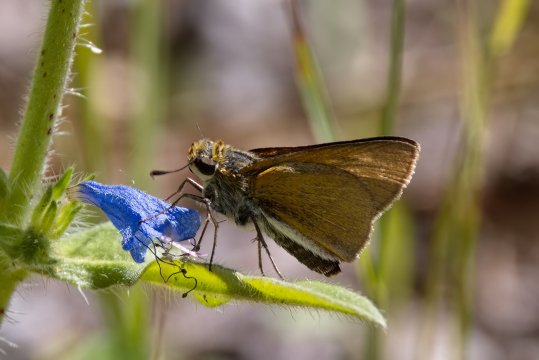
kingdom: Animalia
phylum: Arthropoda
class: Insecta
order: Lepidoptera
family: Hesperiidae
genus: Euphyes
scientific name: Euphyes bimacula
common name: Two-spotted Skipper
